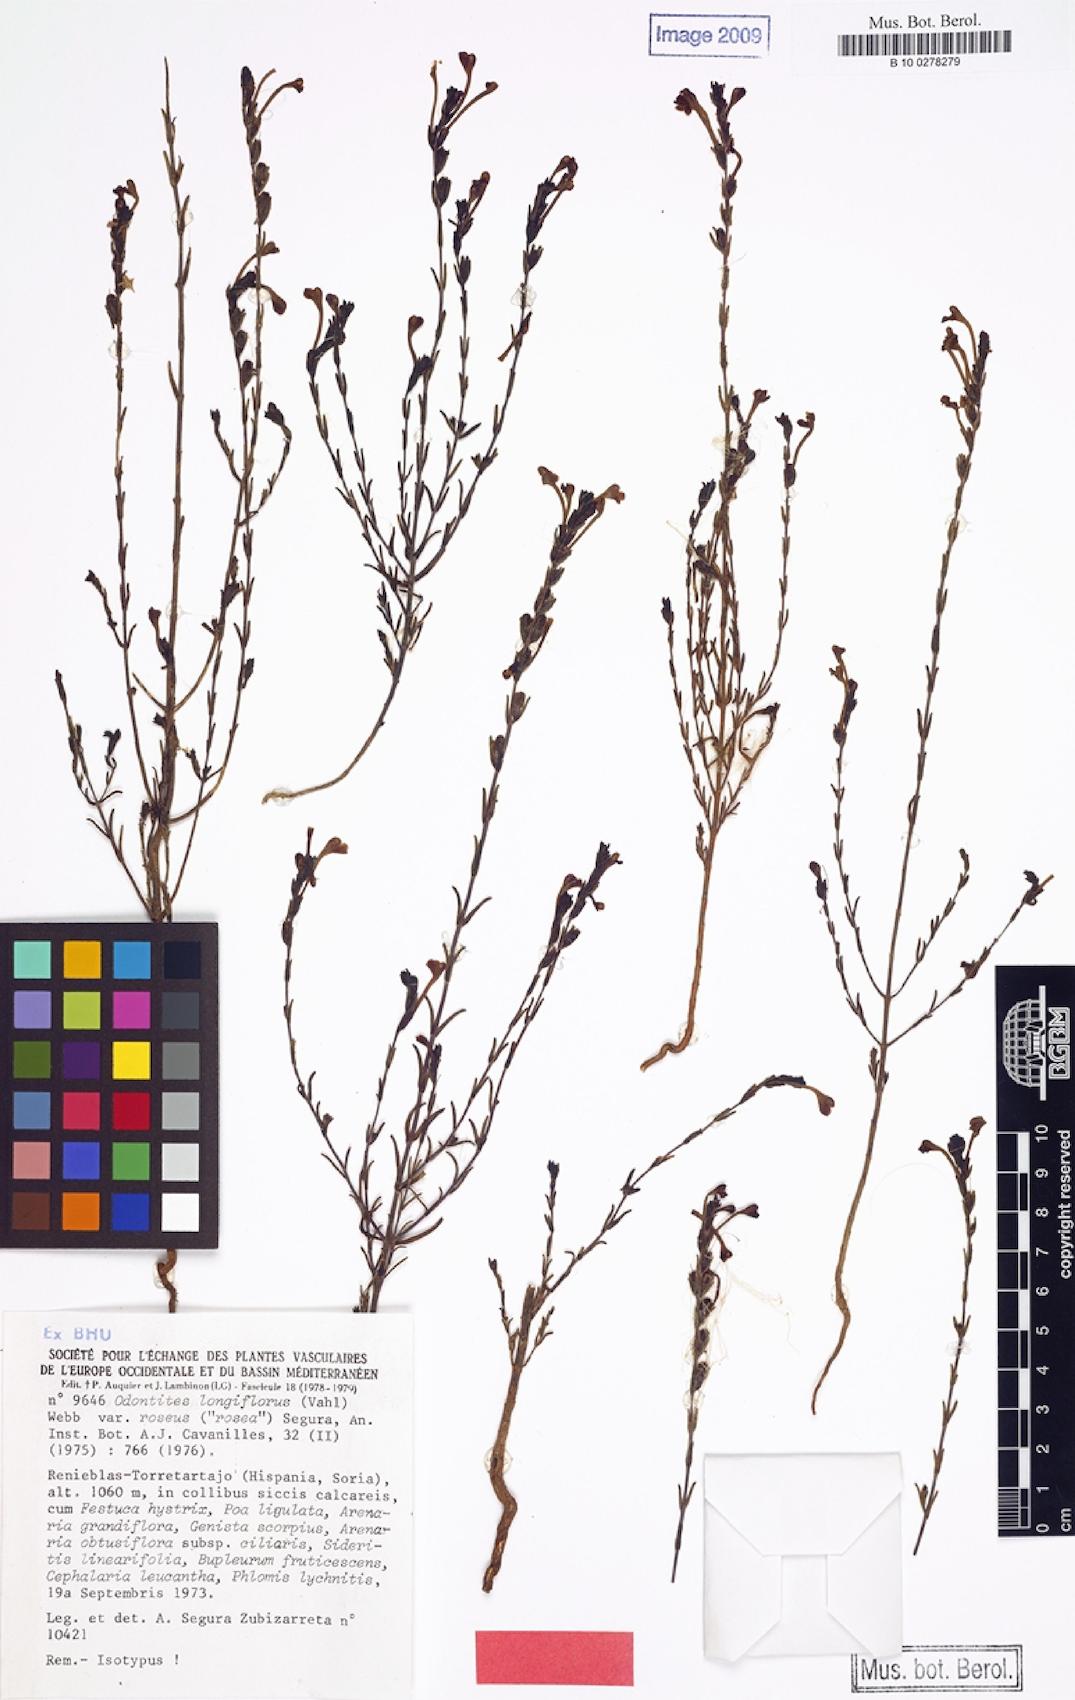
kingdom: Plantae
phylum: Tracheophyta
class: Magnoliopsida
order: Lamiales
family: Orobanchaceae
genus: Odontites
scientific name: Odontites longiflorus
